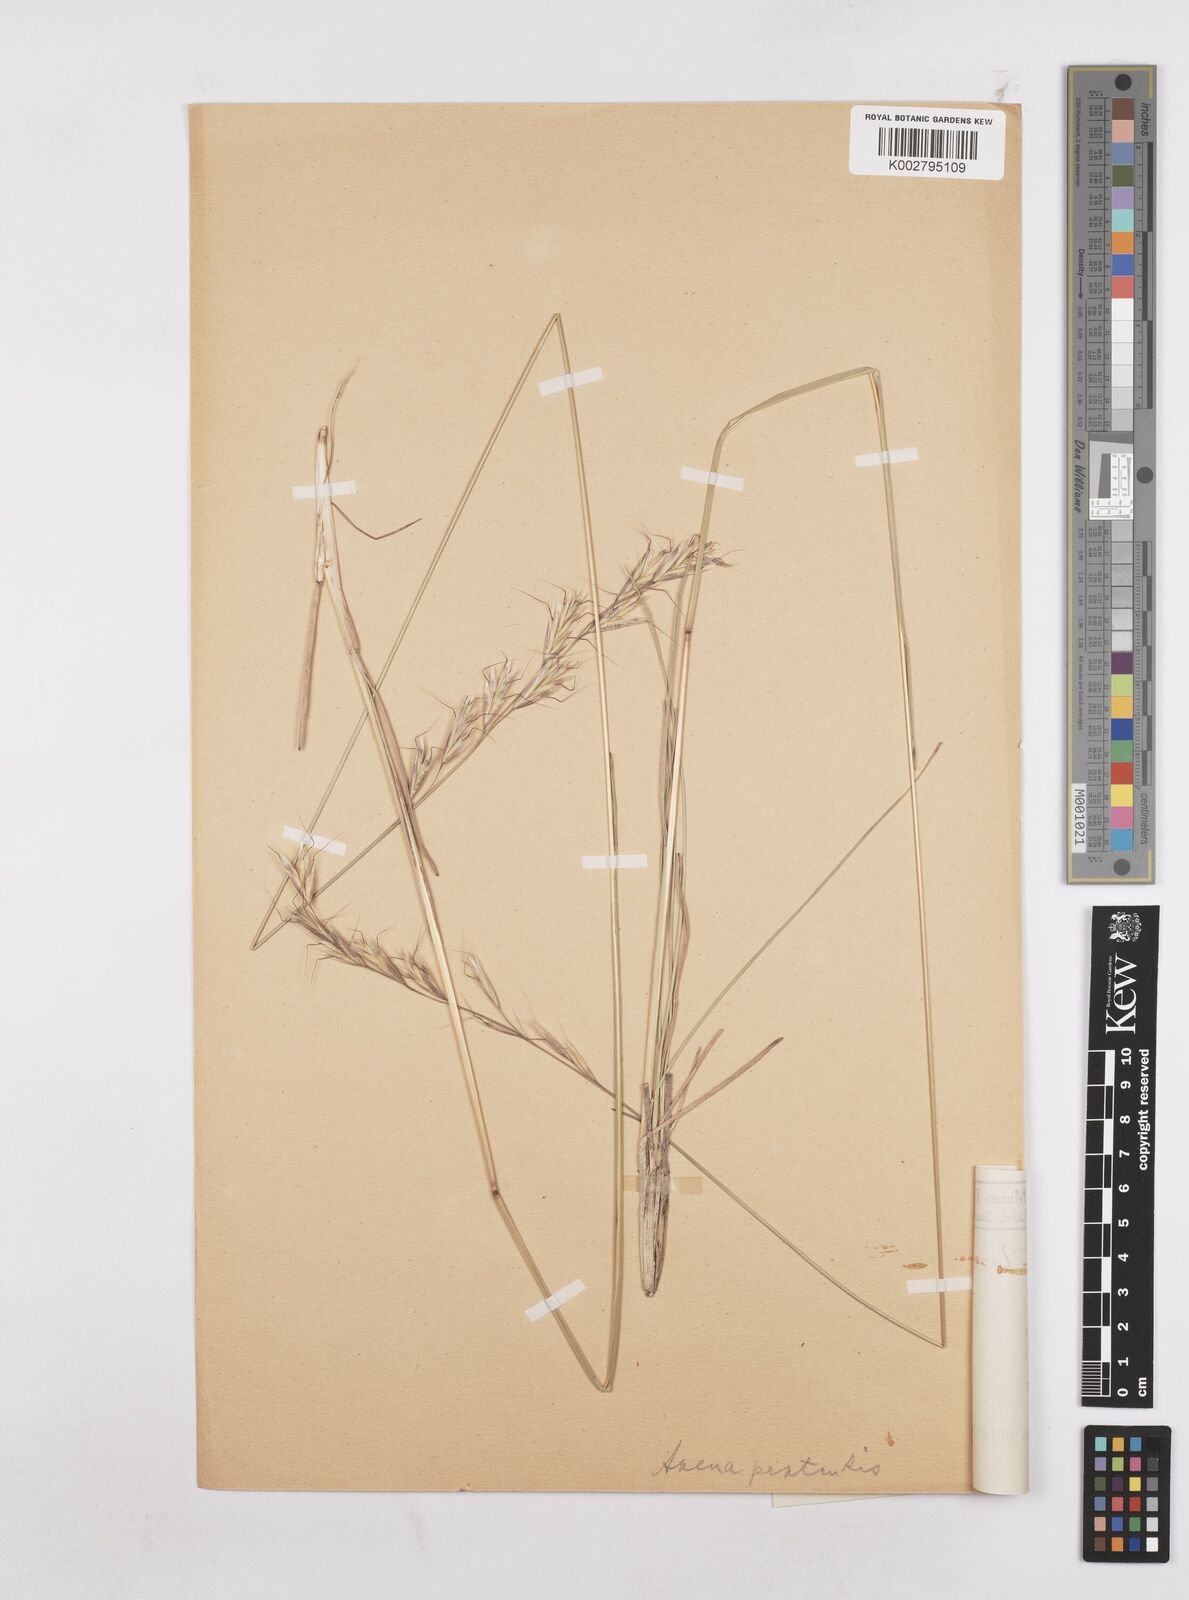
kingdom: Plantae
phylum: Tracheophyta
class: Liliopsida
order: Poales
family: Poaceae
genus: Helictochloa
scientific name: Helictochloa pratensis
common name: Meadow oat grass
